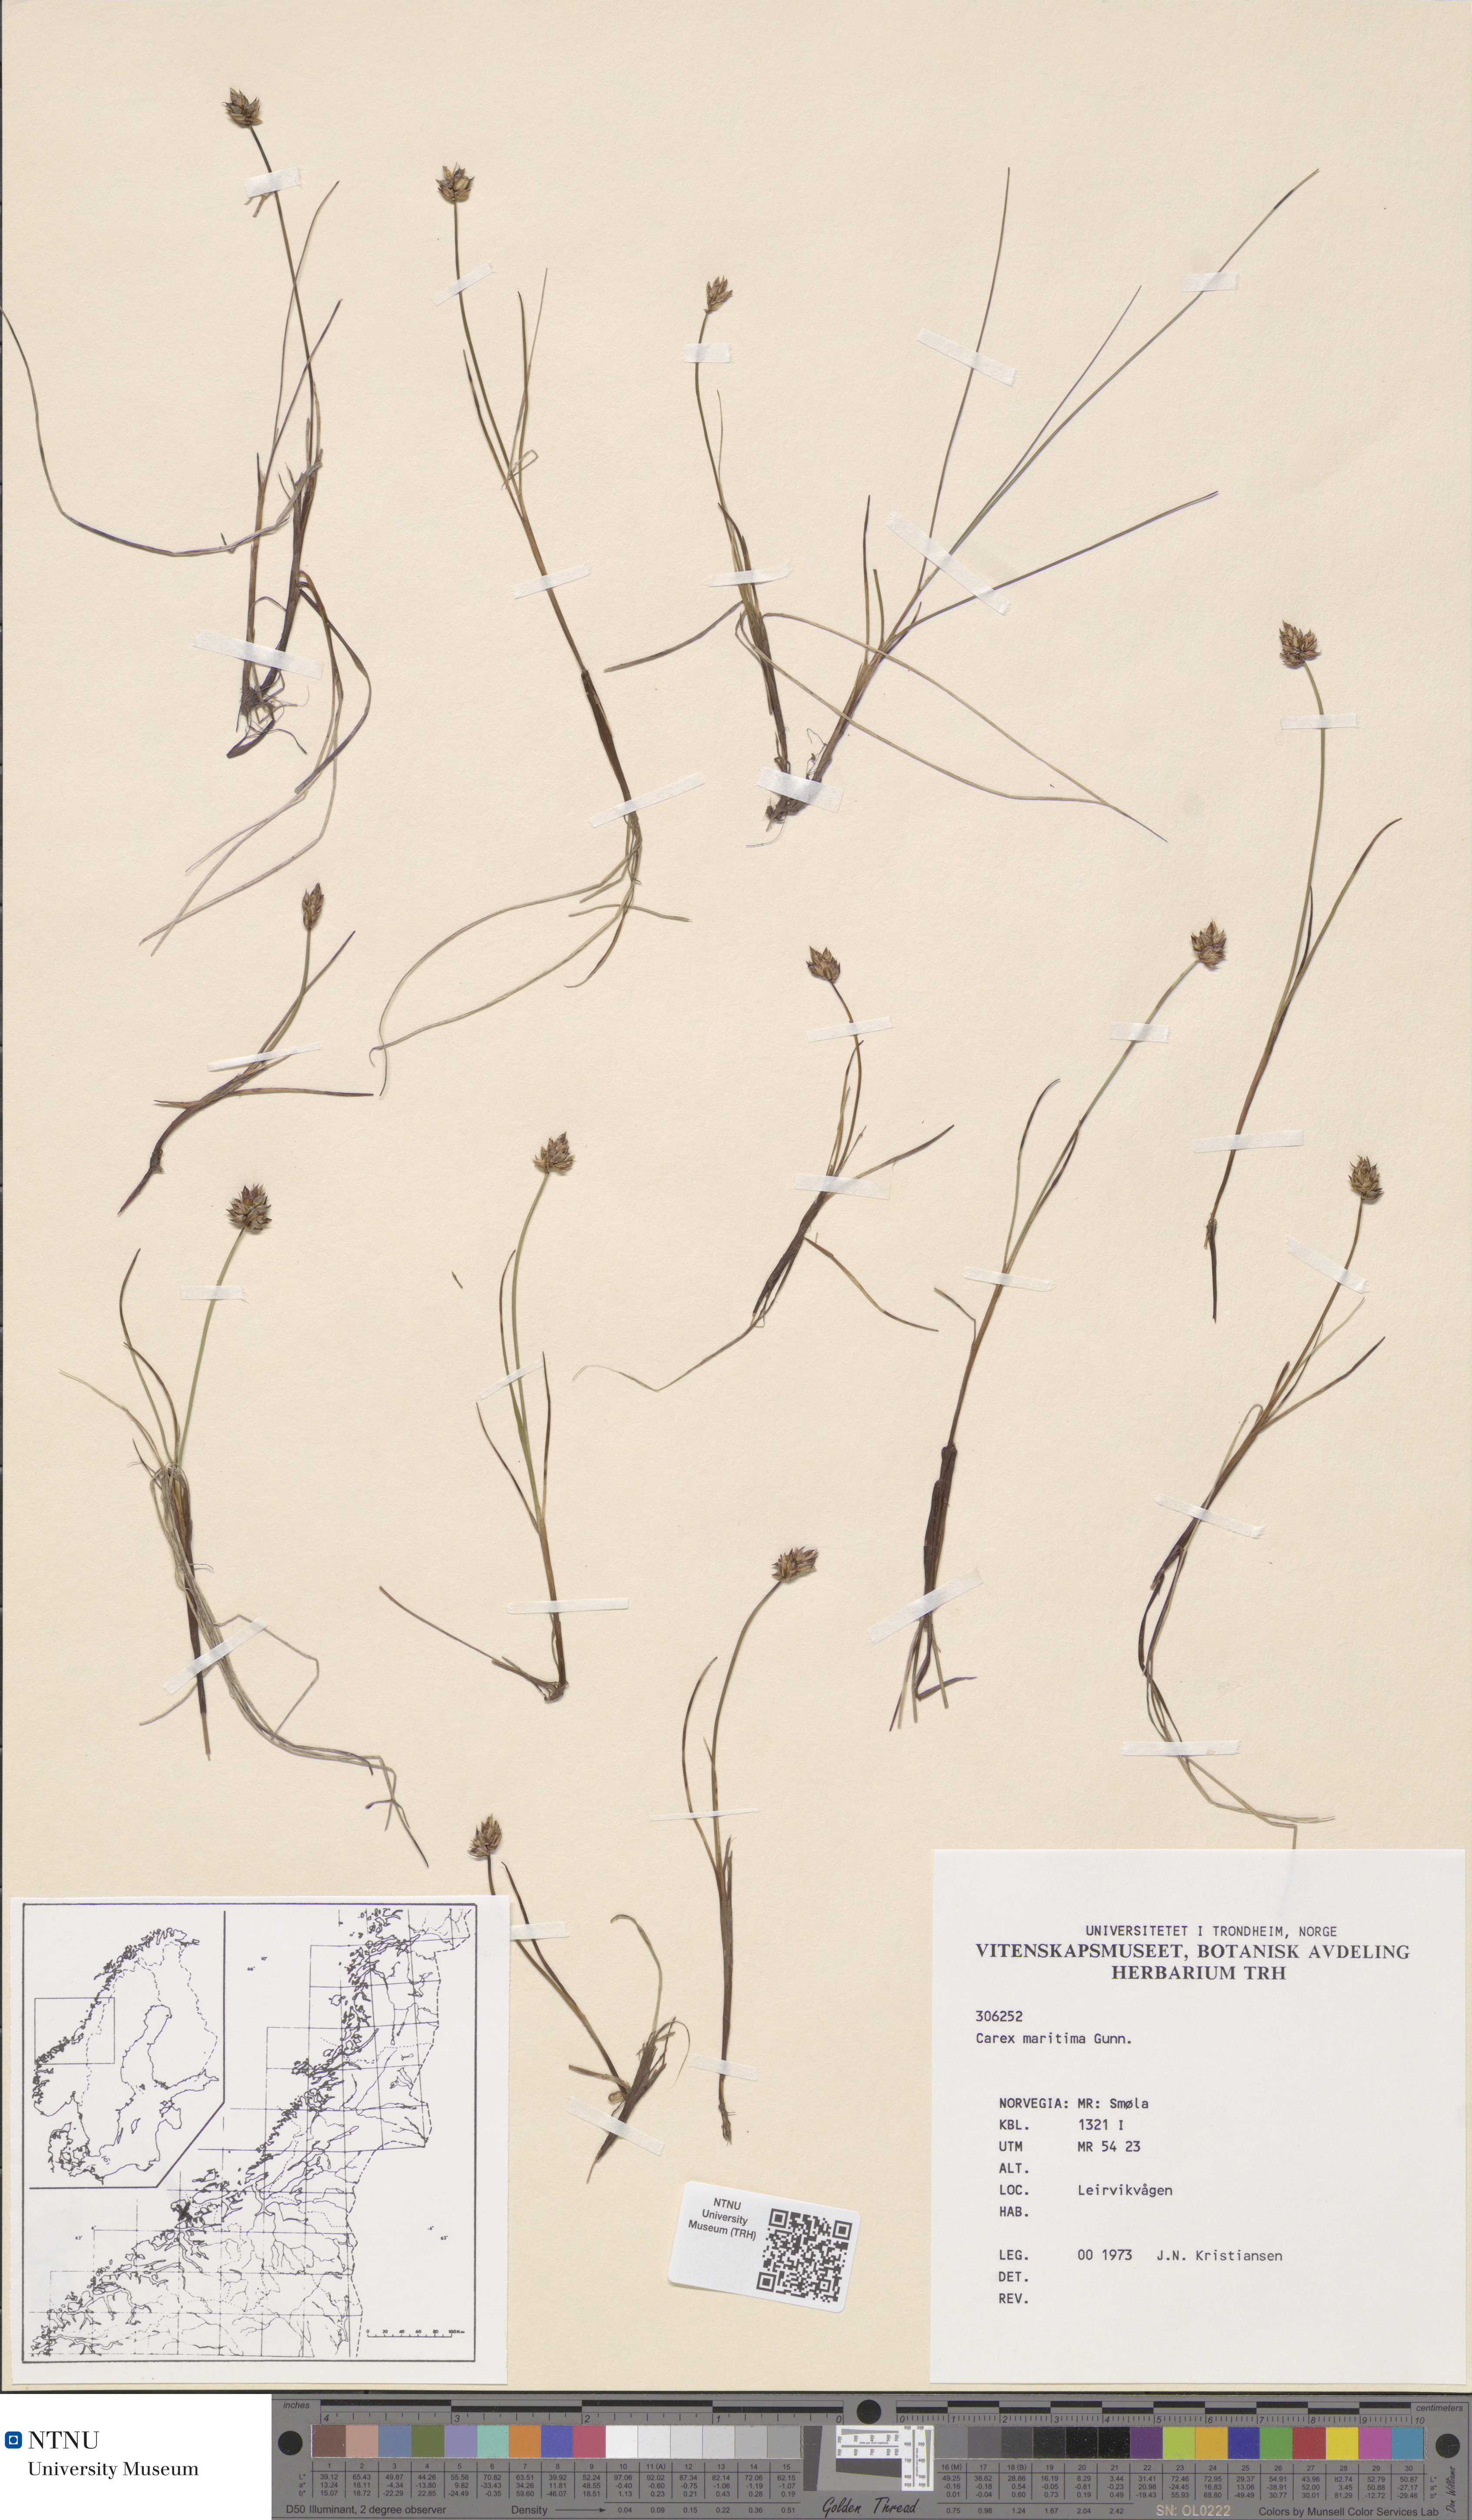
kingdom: Plantae
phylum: Tracheophyta
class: Liliopsida
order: Poales
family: Cyperaceae
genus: Carex
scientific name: Carex maritima
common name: Curved sedge
